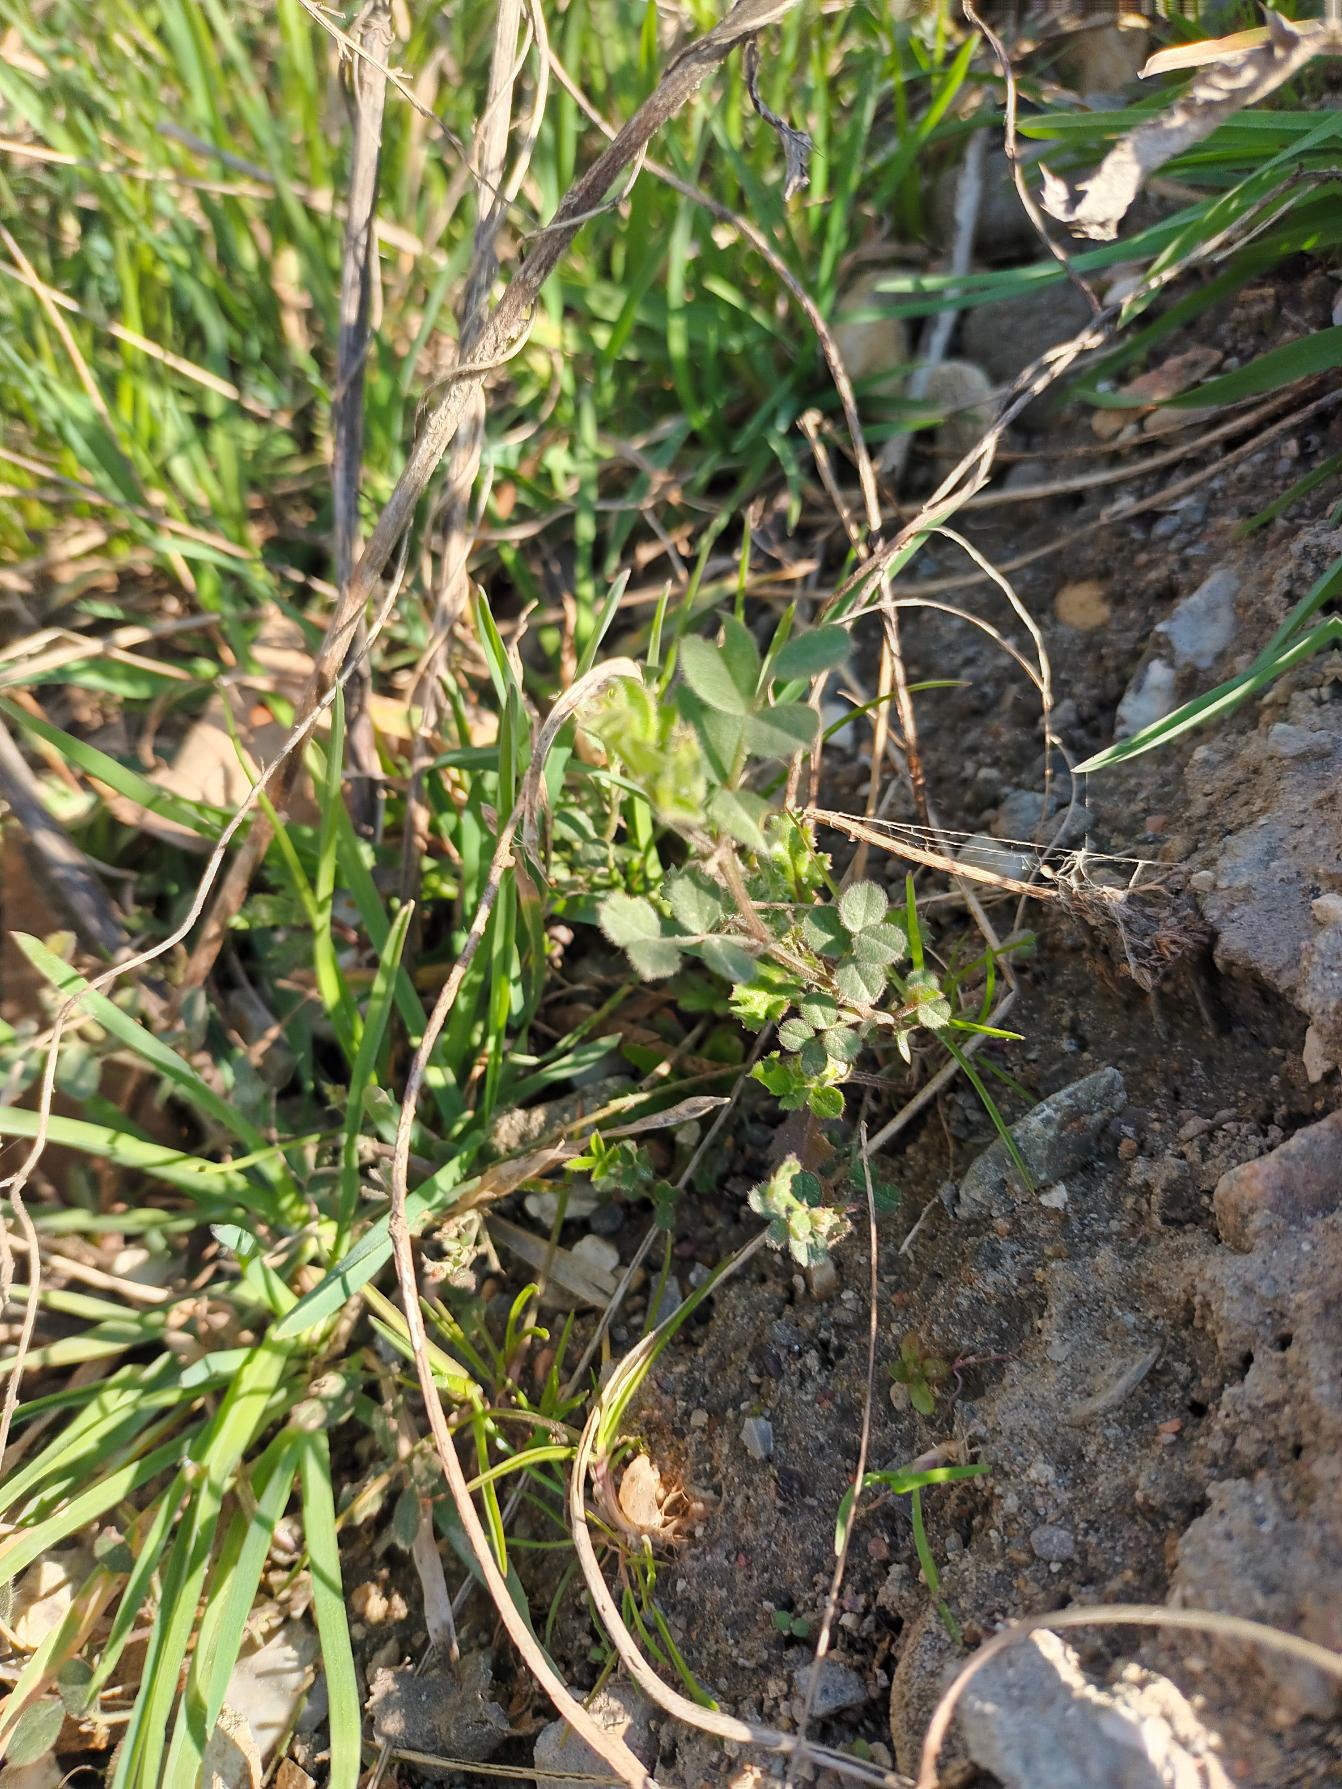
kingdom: Plantae
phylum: Tracheophyta
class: Magnoliopsida
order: Fabales
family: Fabaceae
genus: Vicia
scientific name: Vicia sativa
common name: Smalbladet vikke
